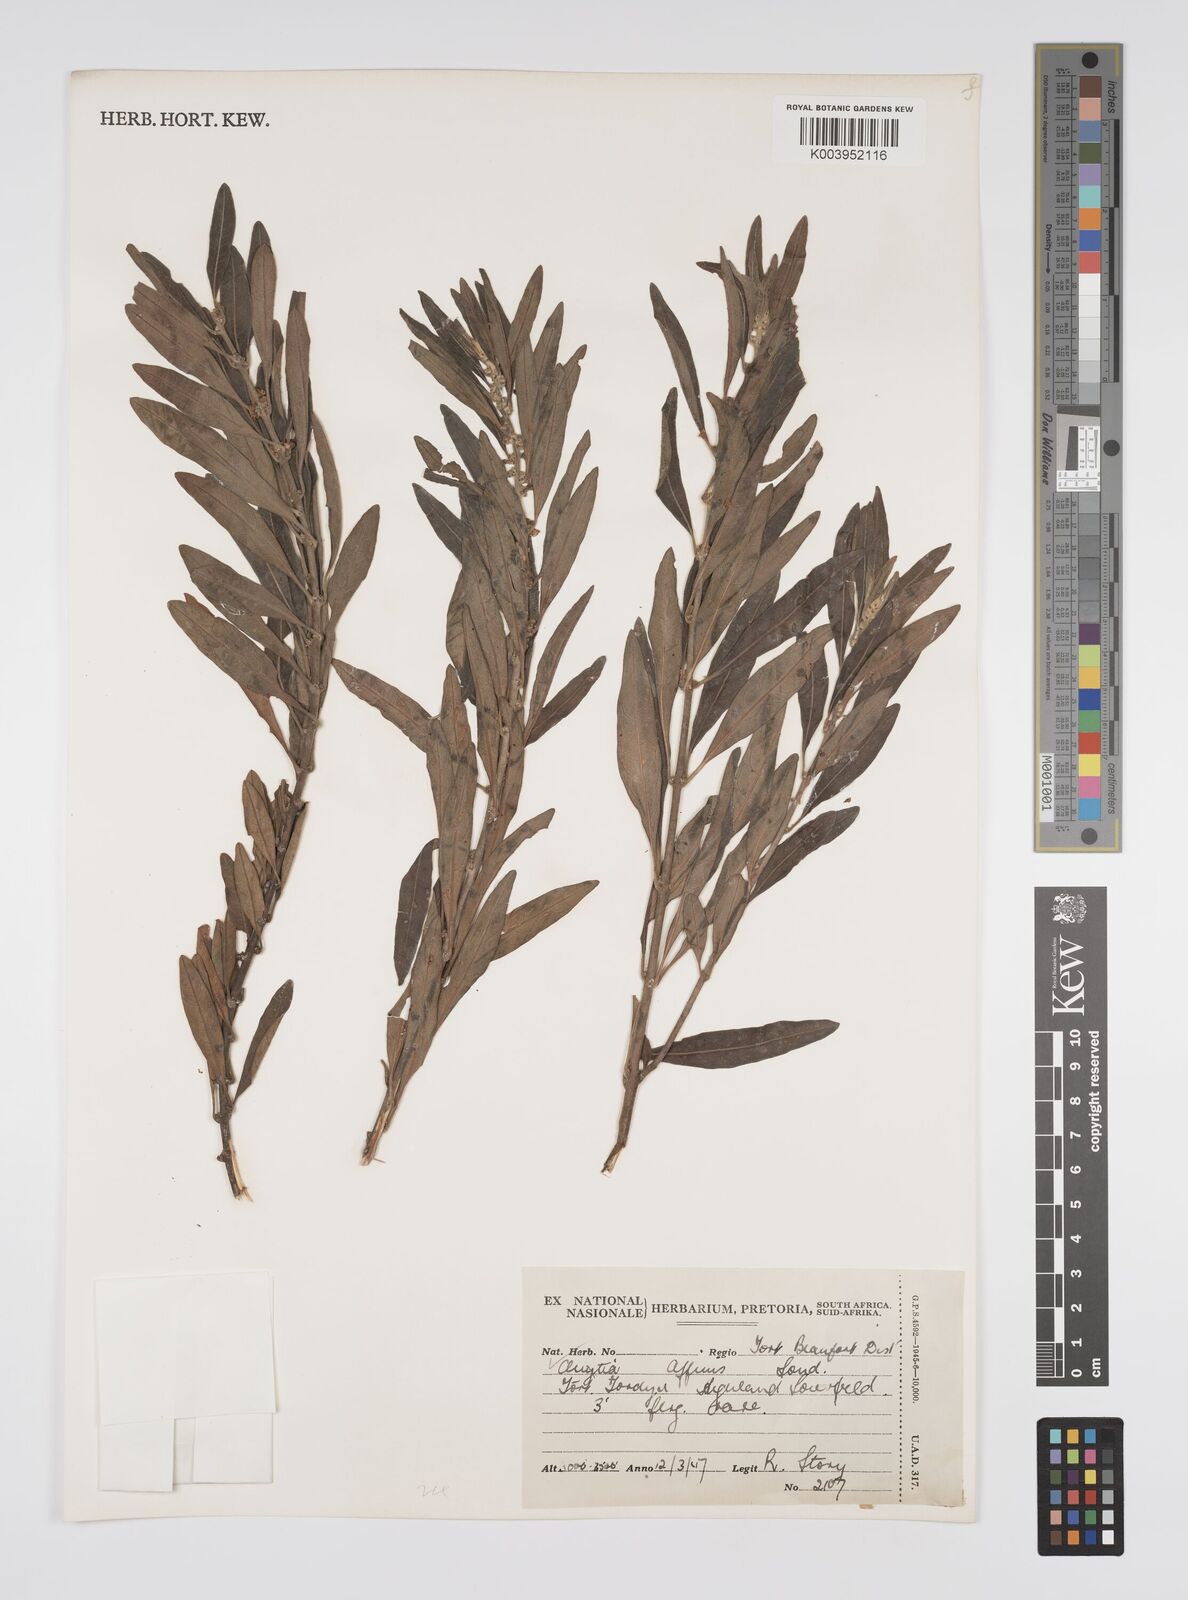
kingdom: Plantae
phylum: Tracheophyta
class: Magnoliopsida
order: Malpighiales
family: Peraceae
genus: Clutia
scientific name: Clutia affinis
